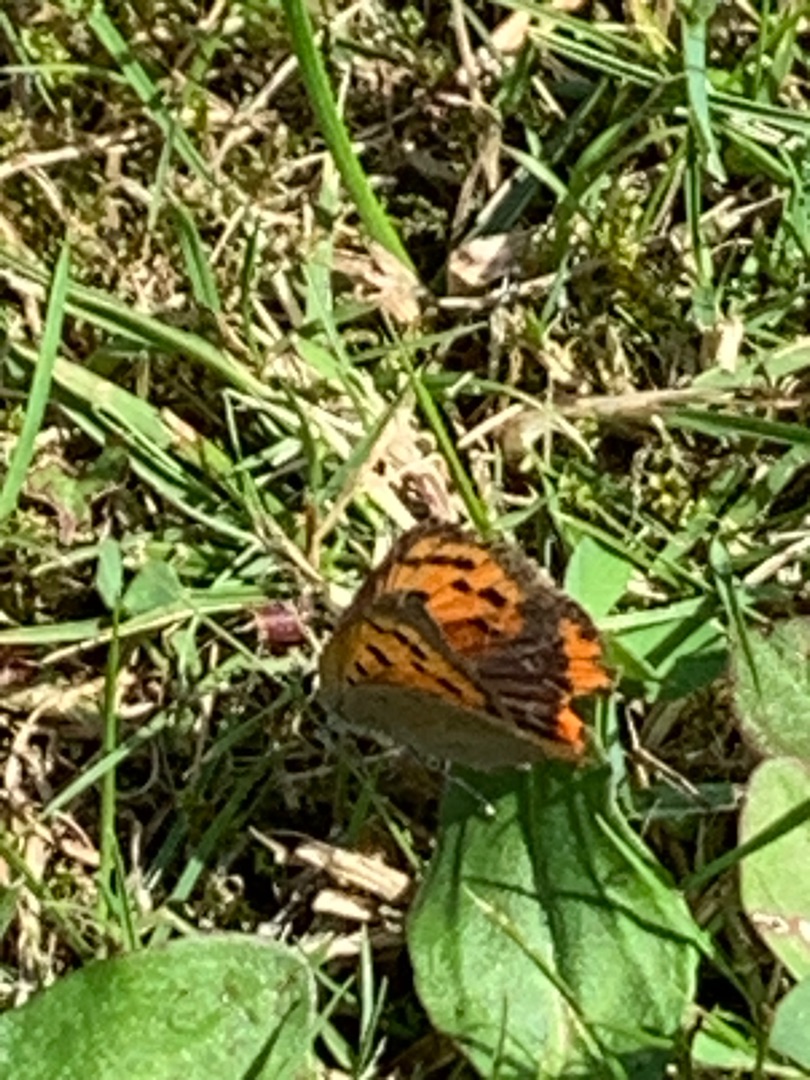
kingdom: Animalia
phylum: Arthropoda
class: Insecta
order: Lepidoptera
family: Lycaenidae
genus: Lycaena
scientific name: Lycaena phlaeas
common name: Lille ildfugl
